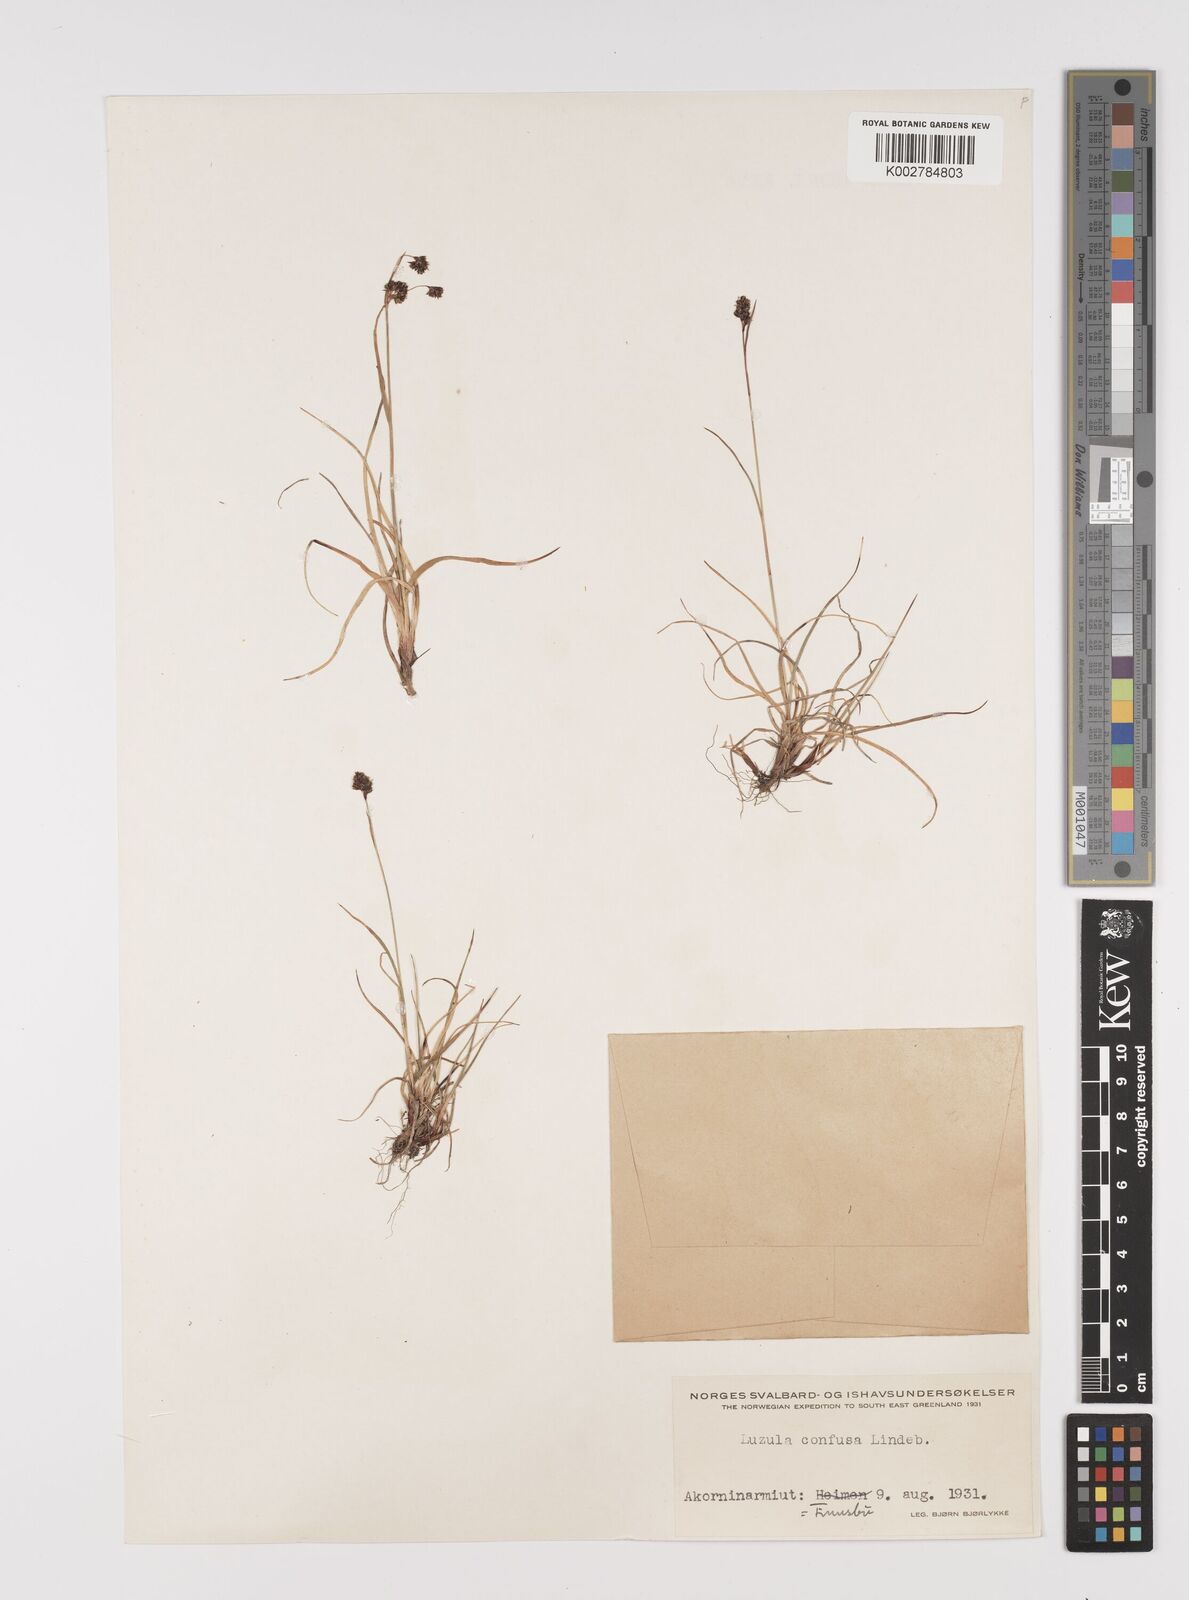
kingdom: Plantae
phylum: Tracheophyta
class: Liliopsida
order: Poales
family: Juncaceae
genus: Luzula
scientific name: Luzula confusa
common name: Northern wood rush
